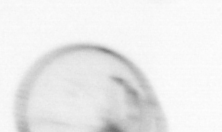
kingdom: Chromista
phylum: Myzozoa
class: Dinophyceae
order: Noctilucales
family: Noctilucaceae
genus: Noctiluca
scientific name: Noctiluca scintillans
